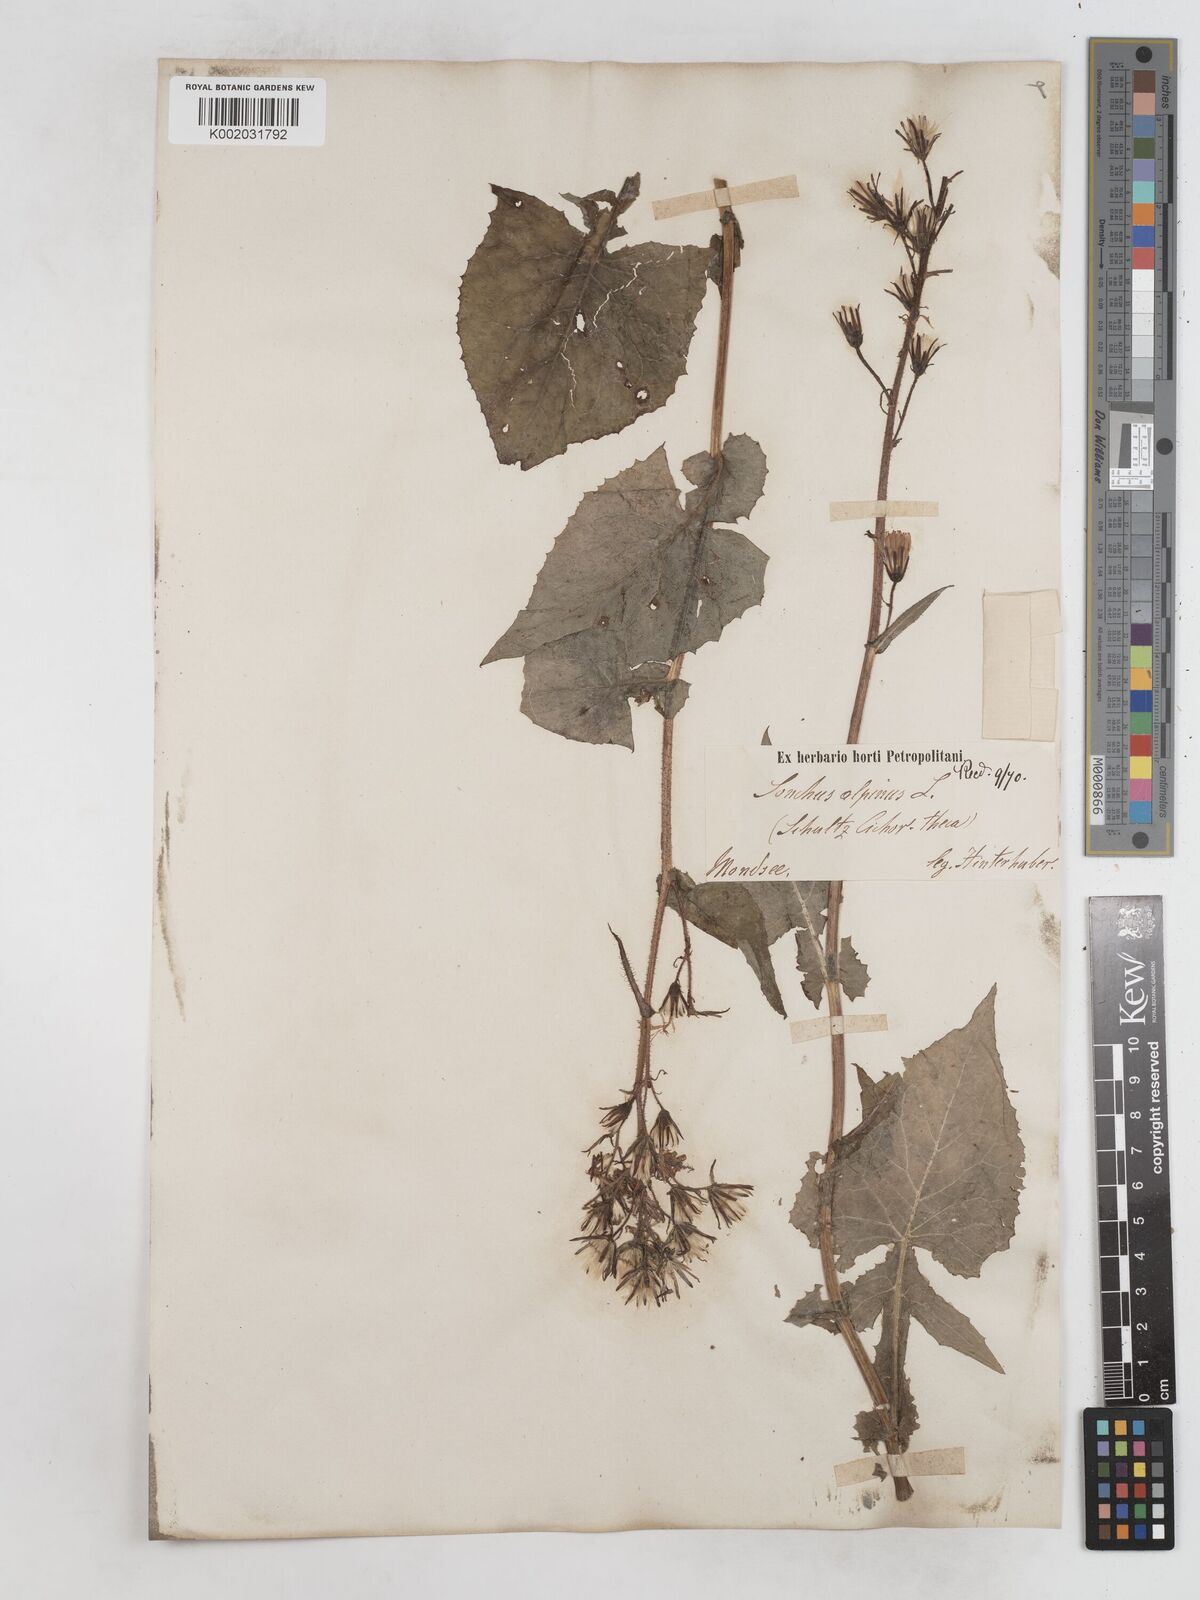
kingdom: Plantae
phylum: Tracheophyta
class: Magnoliopsida
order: Asterales
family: Asteraceae
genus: Cicerbita
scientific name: Cicerbita alpina
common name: Alpine blue-sow-thistle
